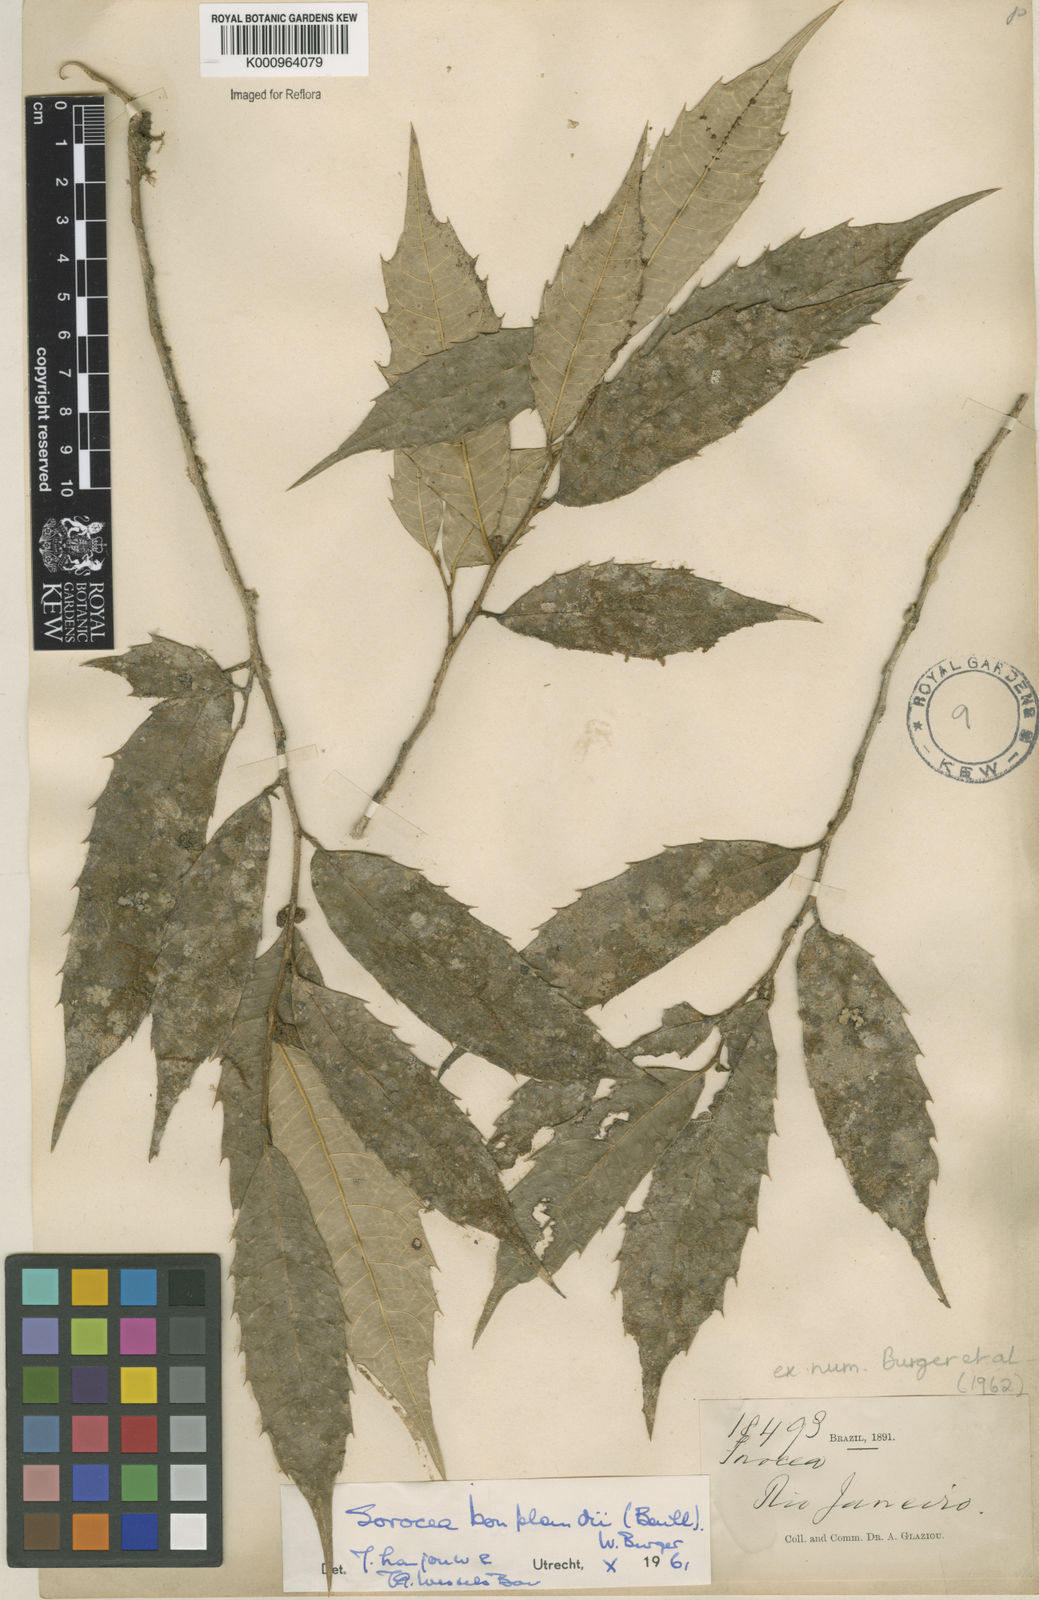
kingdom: Plantae
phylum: Tracheophyta
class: Magnoliopsida
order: Rosales
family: Moraceae
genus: Sorocea
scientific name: Sorocea
